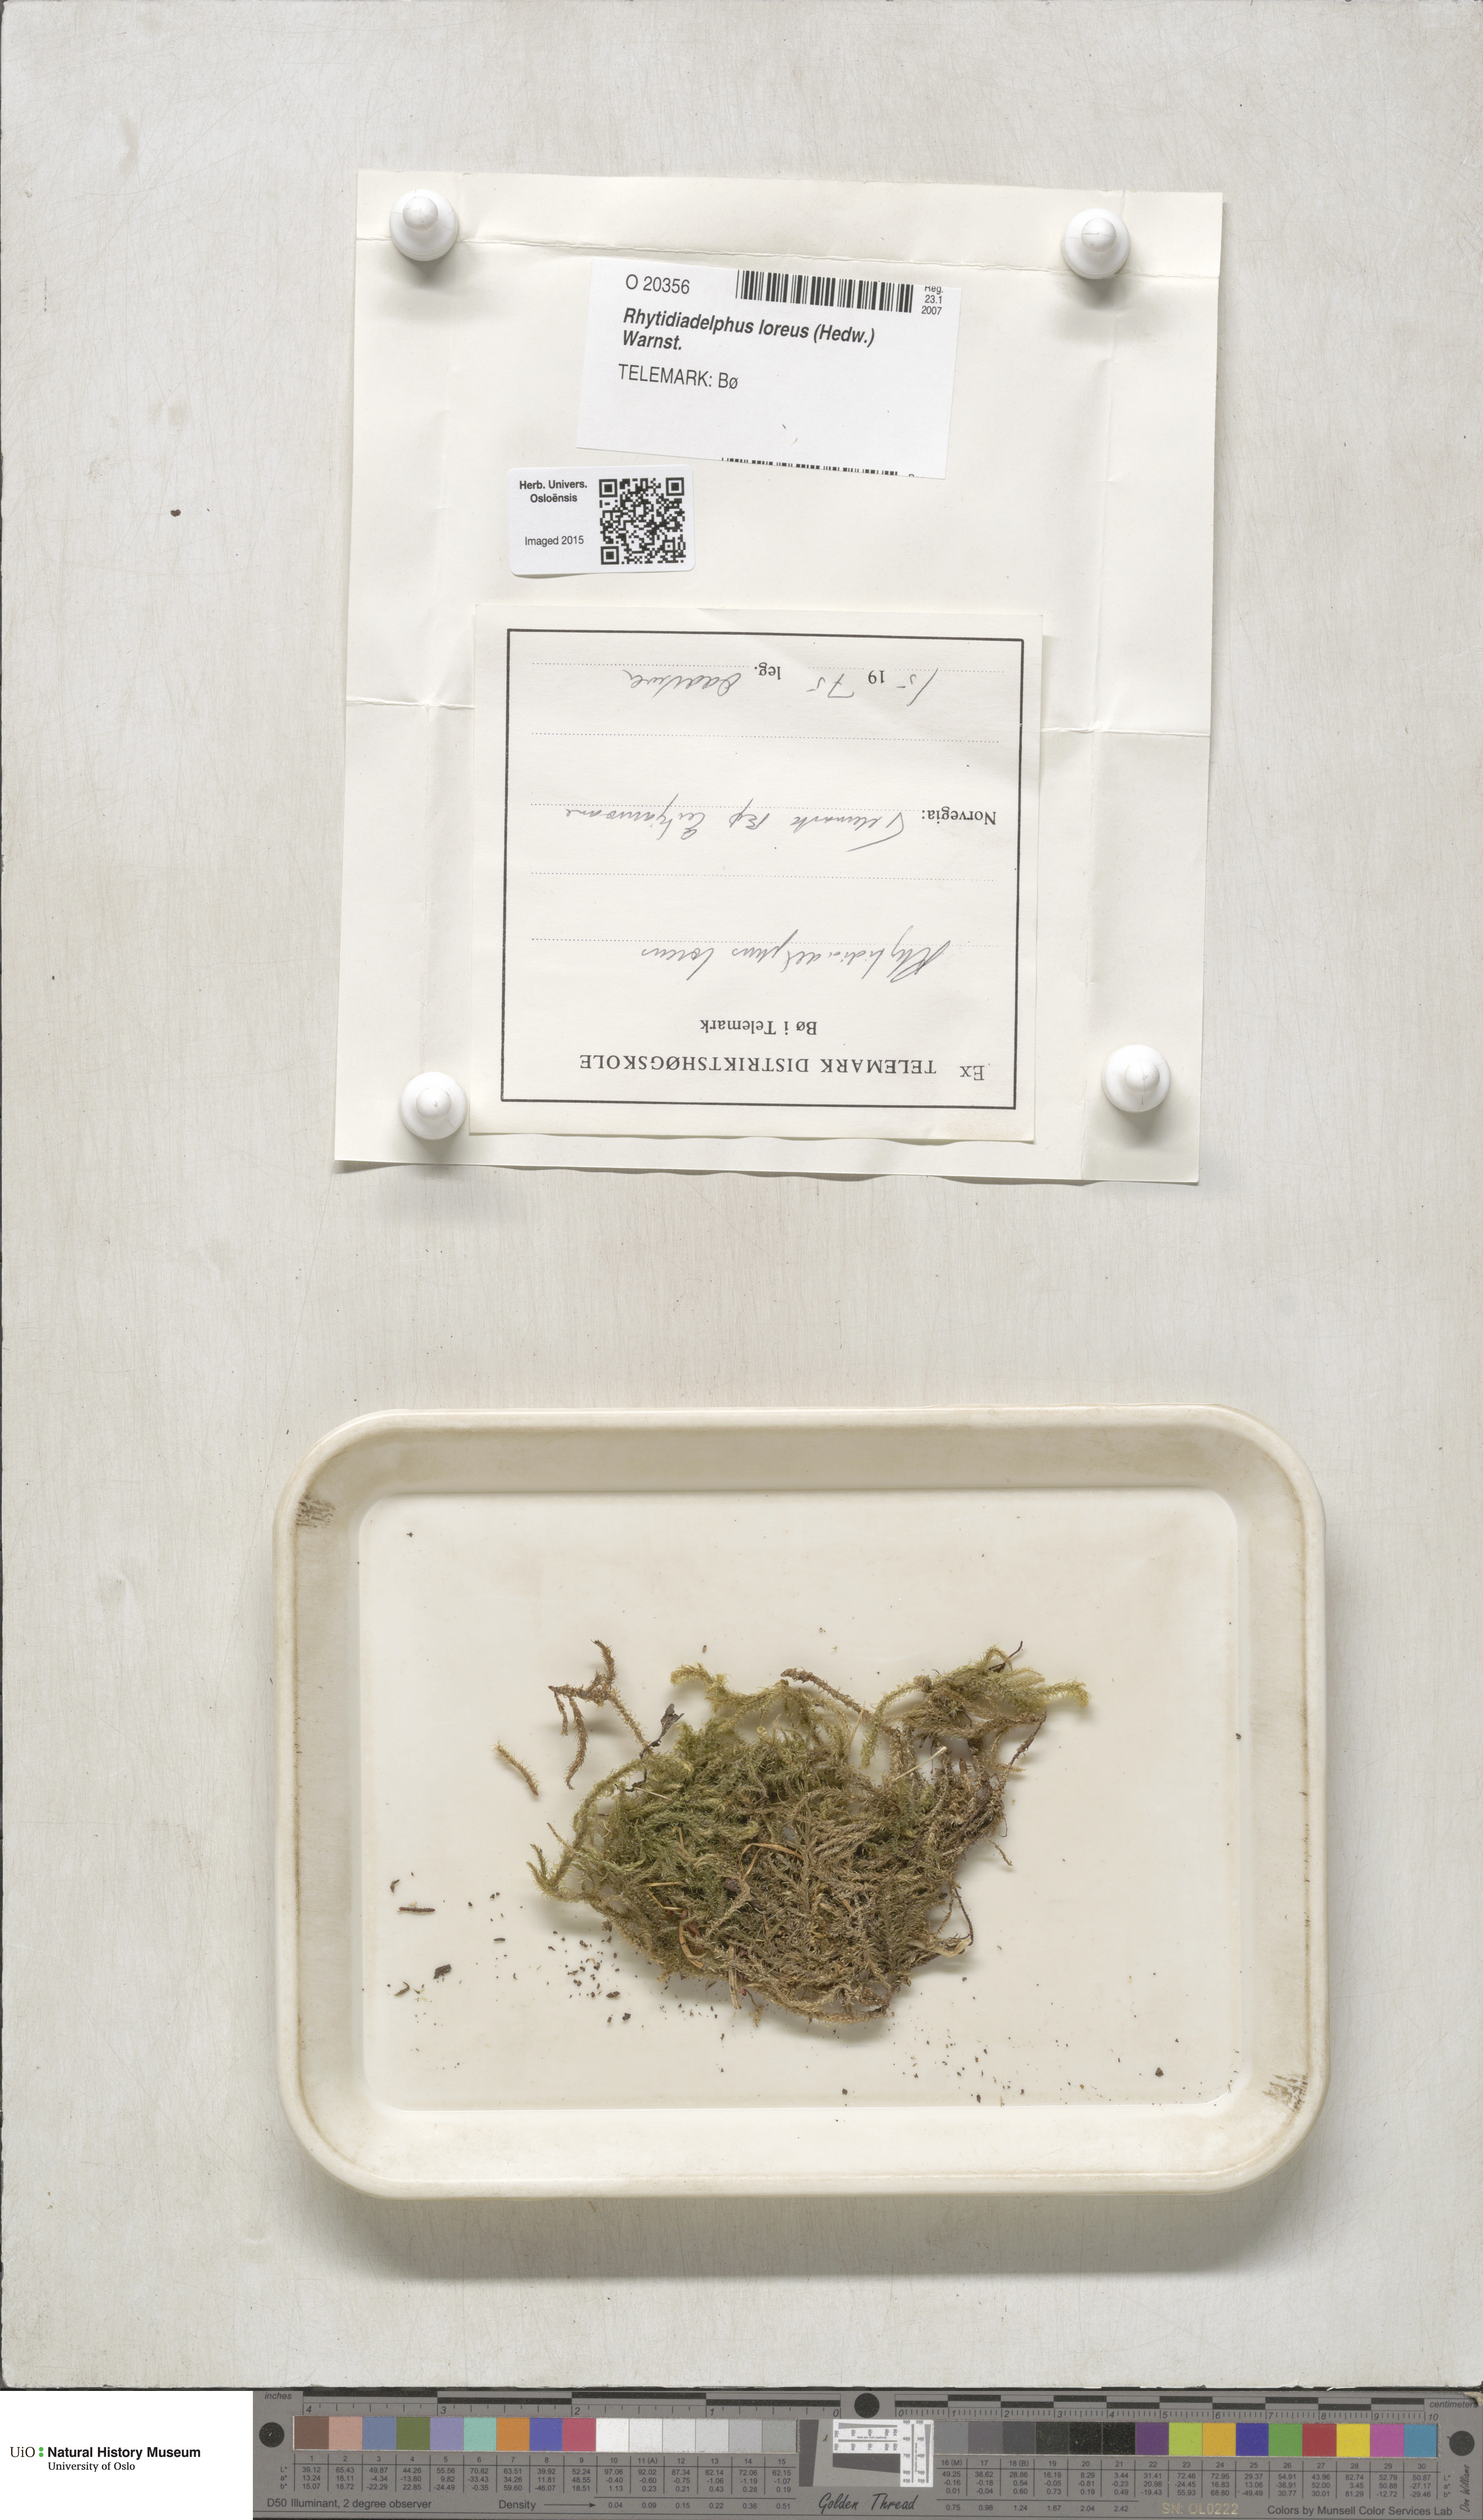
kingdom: Plantae
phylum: Bryophyta
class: Bryopsida
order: Hypnales
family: Hylocomiaceae
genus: Rhytidiadelphus
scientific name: Rhytidiadelphus loreus
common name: Lanky moss
